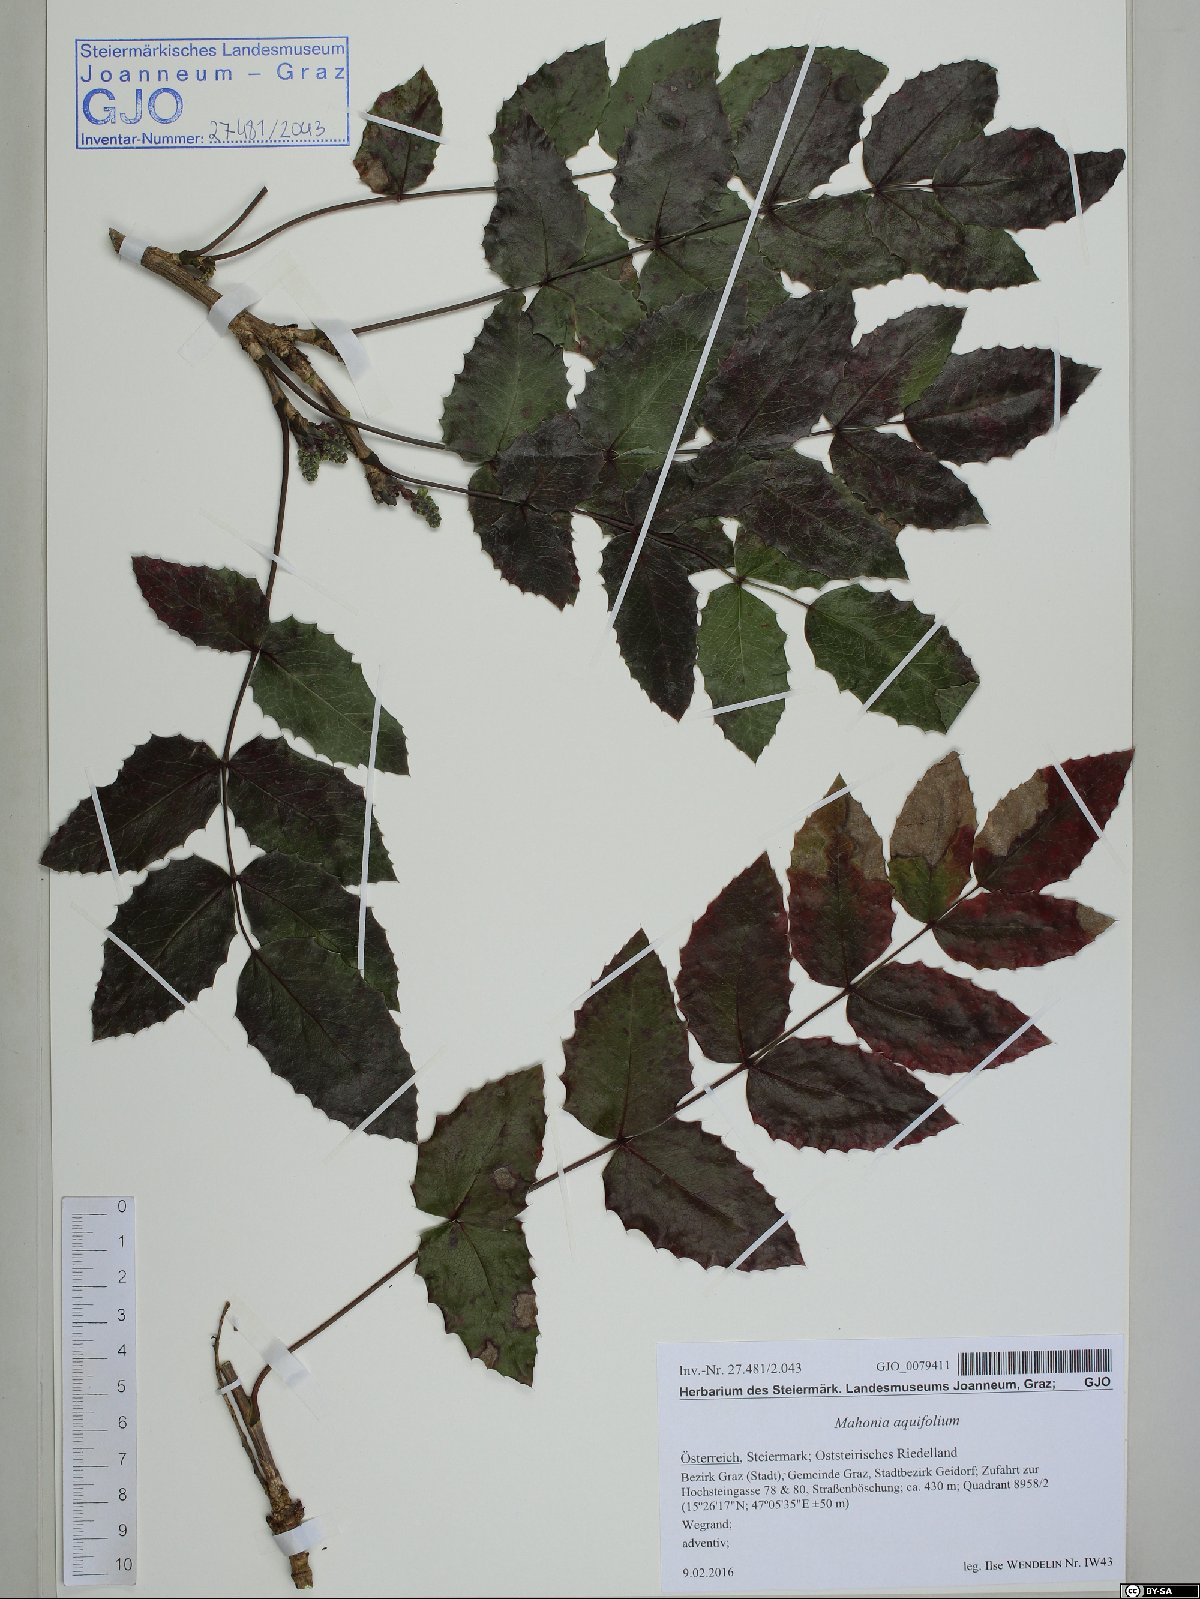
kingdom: Plantae
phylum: Tracheophyta
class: Magnoliopsida
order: Ranunculales
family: Berberidaceae
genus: Mahonia
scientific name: Mahonia aquifolium
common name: Oregon-grape
